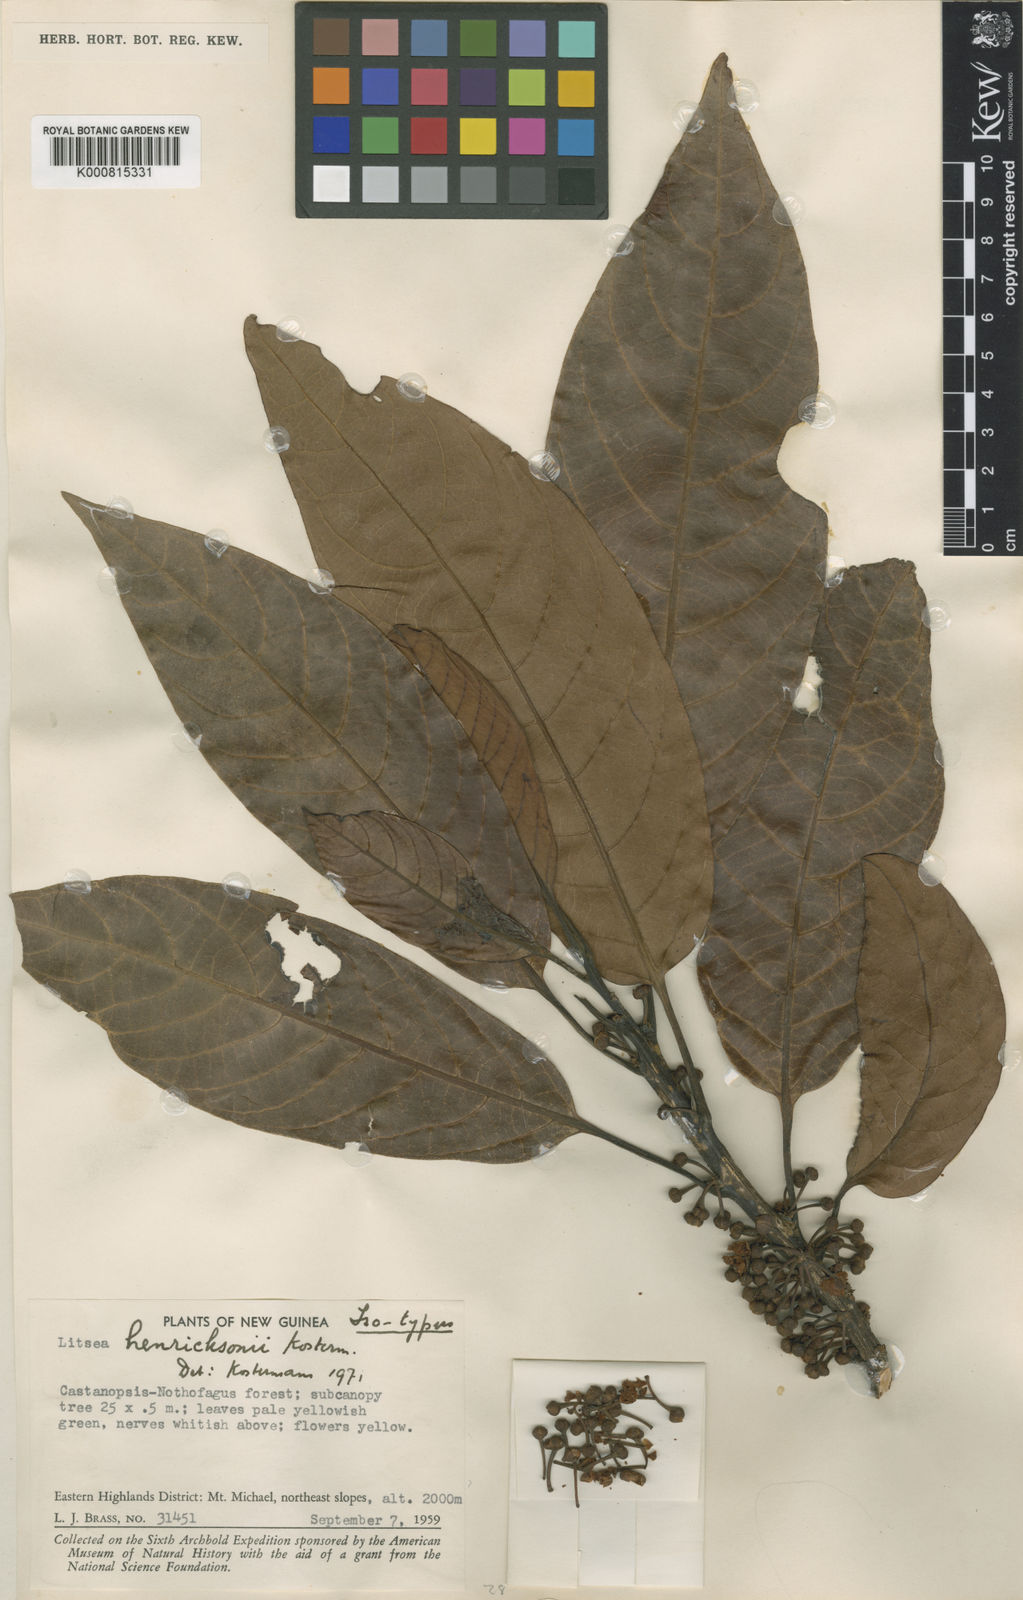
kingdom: Plantae
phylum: Tracheophyta
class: Magnoliopsida
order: Laurales
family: Lauraceae
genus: Litsea
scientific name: Litsea henricksonii
